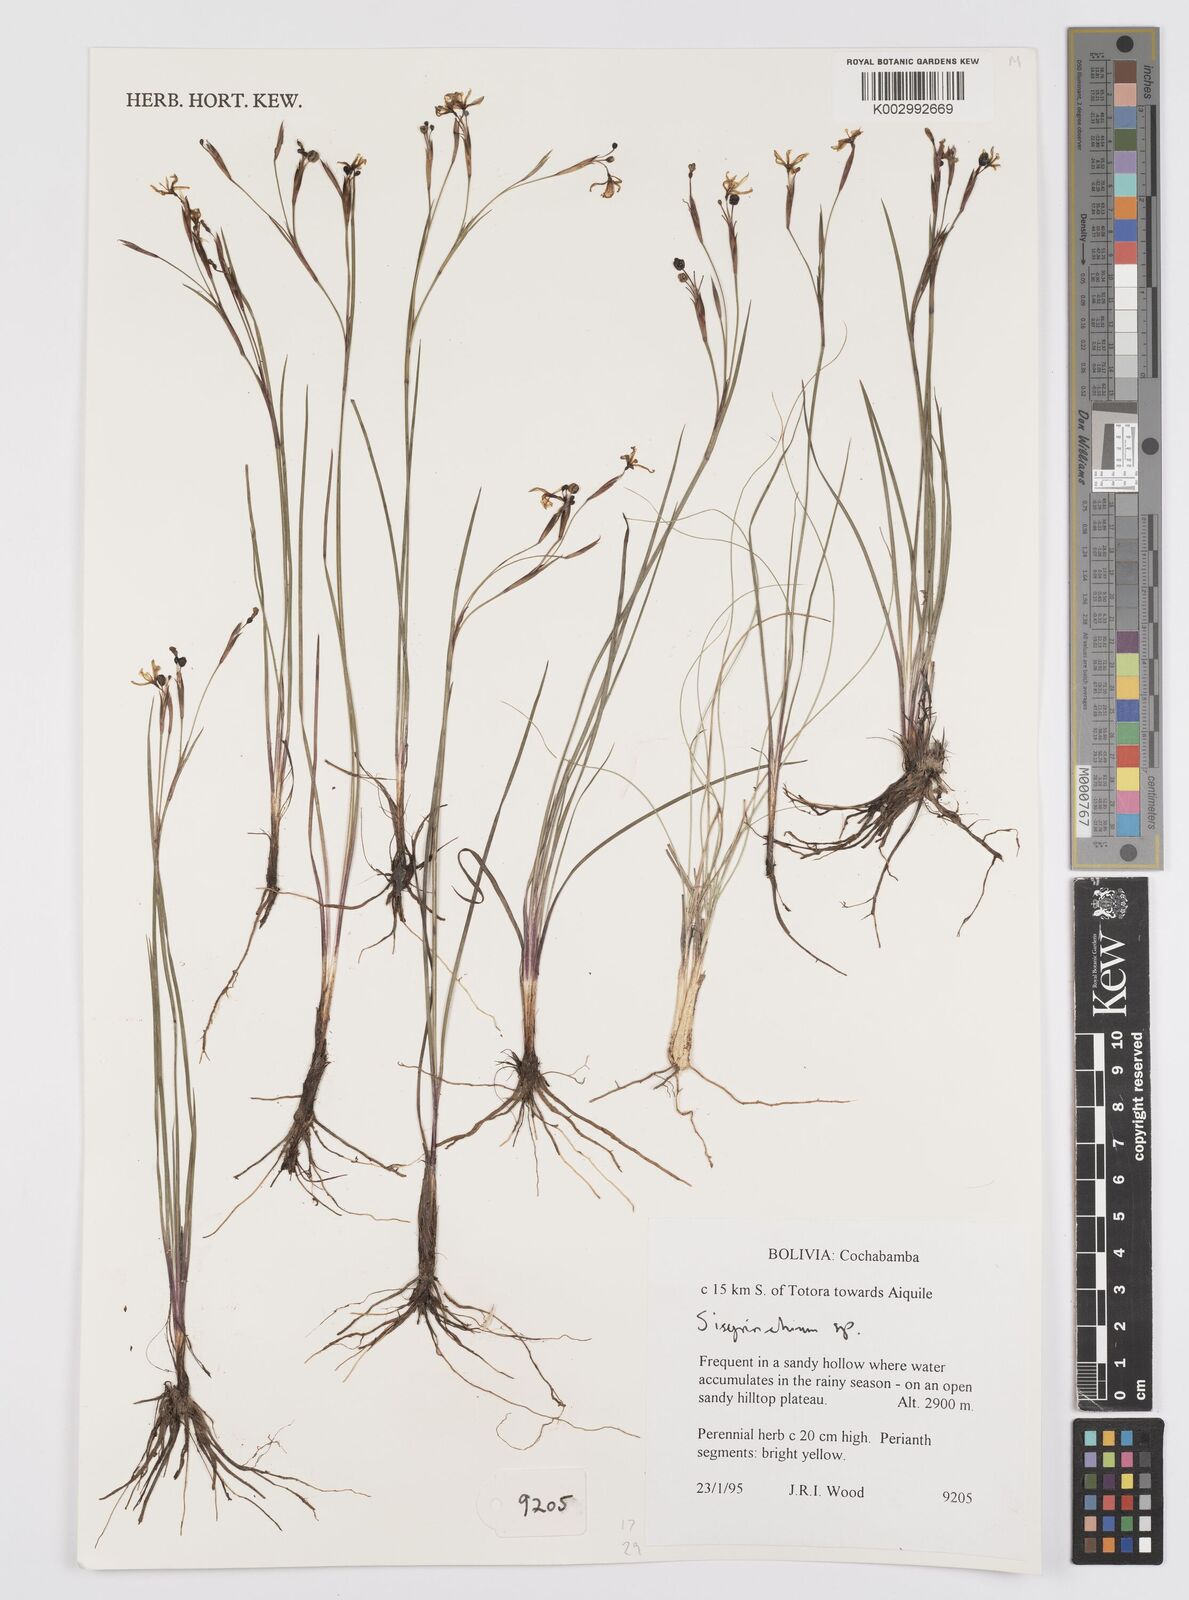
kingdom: Plantae
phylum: Tracheophyta
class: Liliopsida
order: Asparagales
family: Iridaceae
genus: Sisyrinchium
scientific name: Sisyrinchium
